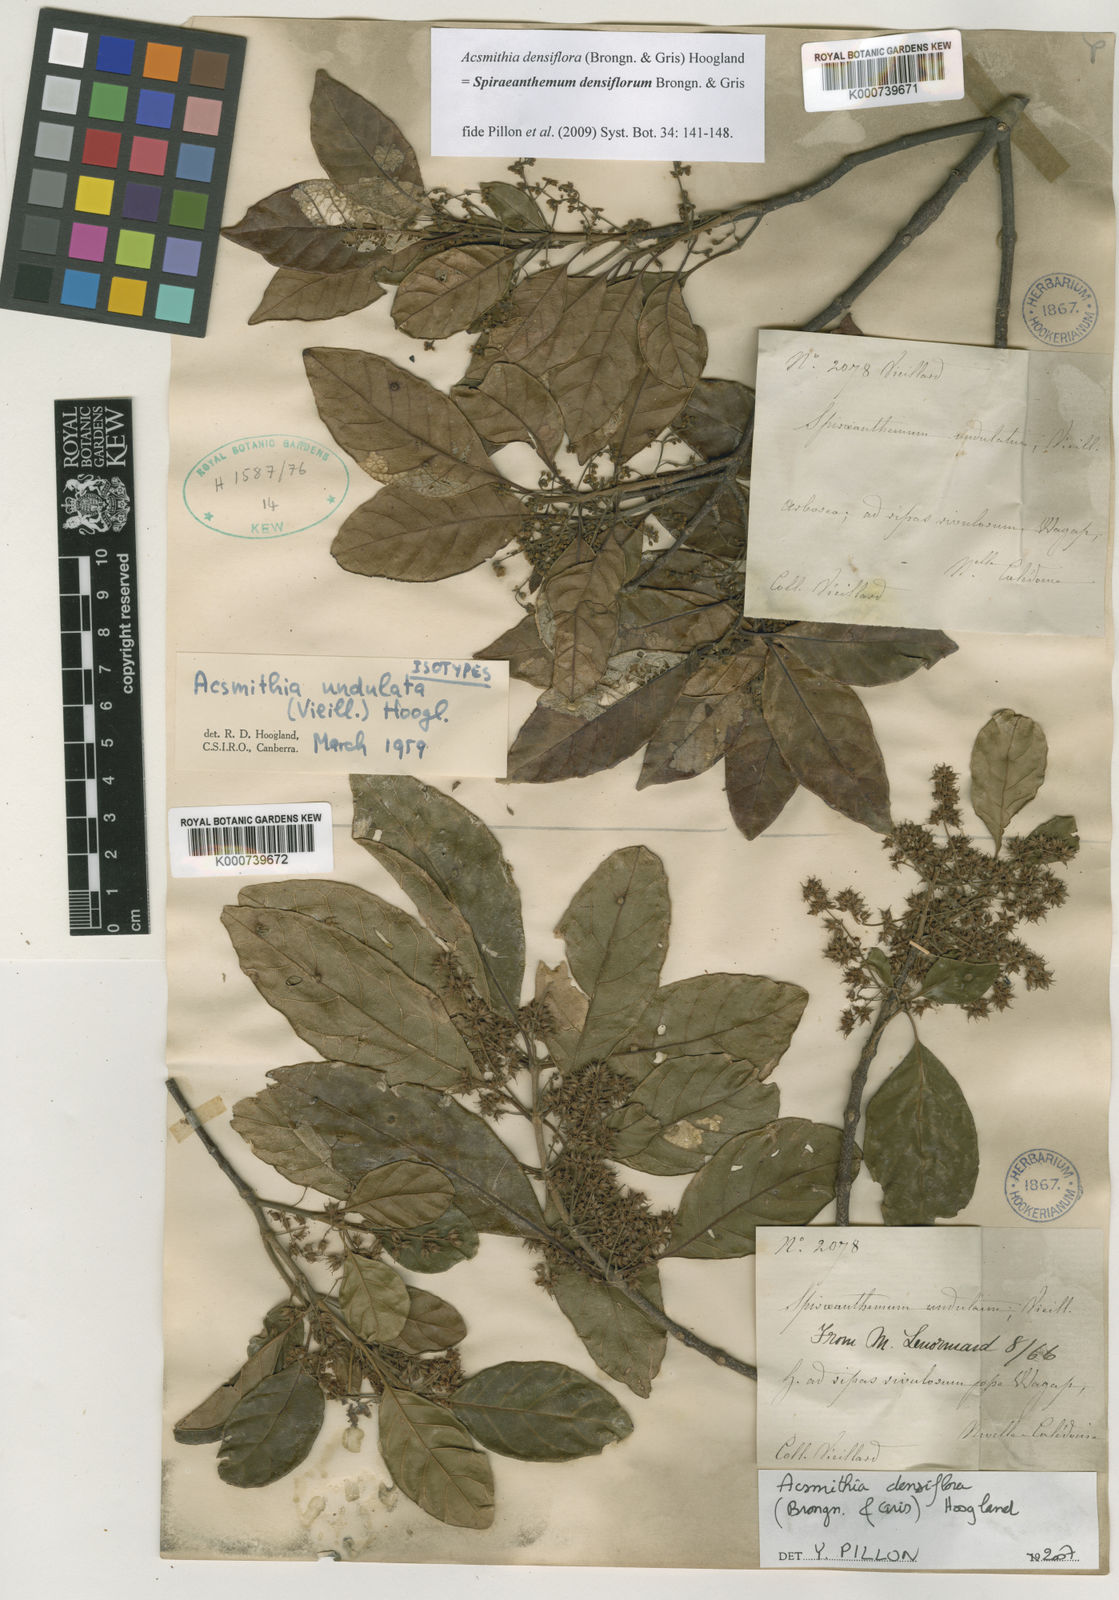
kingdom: Plantae
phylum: Tracheophyta
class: Magnoliopsida
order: Oxalidales
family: Cunoniaceae
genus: Spiraeanthemum
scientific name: Spiraeanthemum densiflorum
